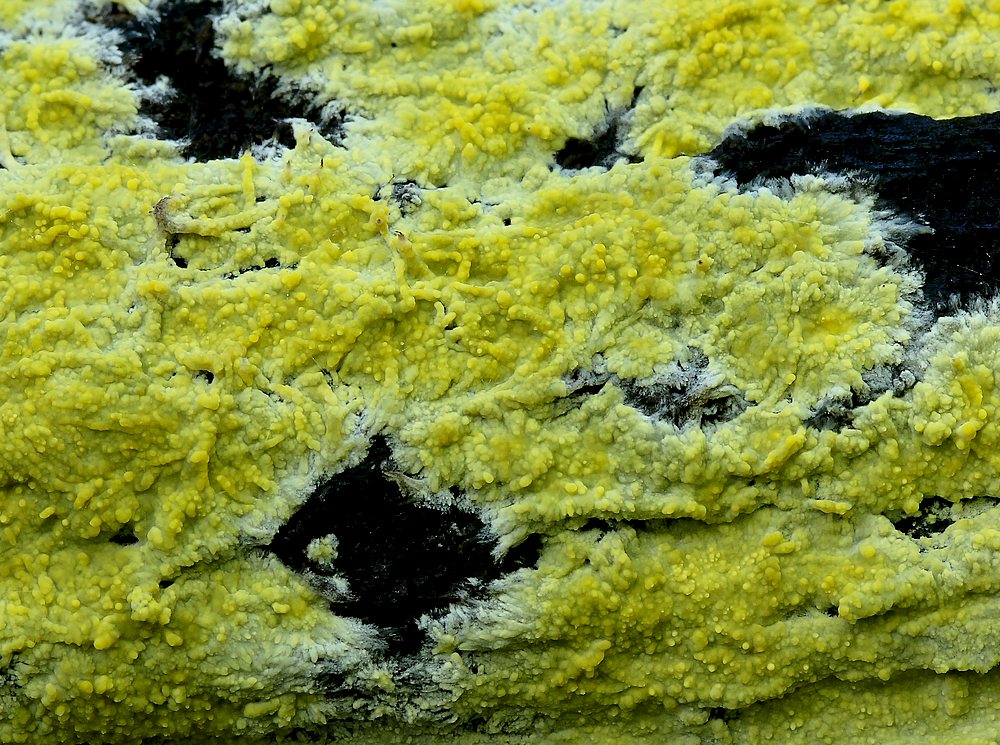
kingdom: Fungi
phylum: Basidiomycota
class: Agaricomycetes
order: Polyporales
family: Meruliaceae
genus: Phlebiodontia
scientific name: Phlebiodontia subochracea
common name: svovl-åresvamp
